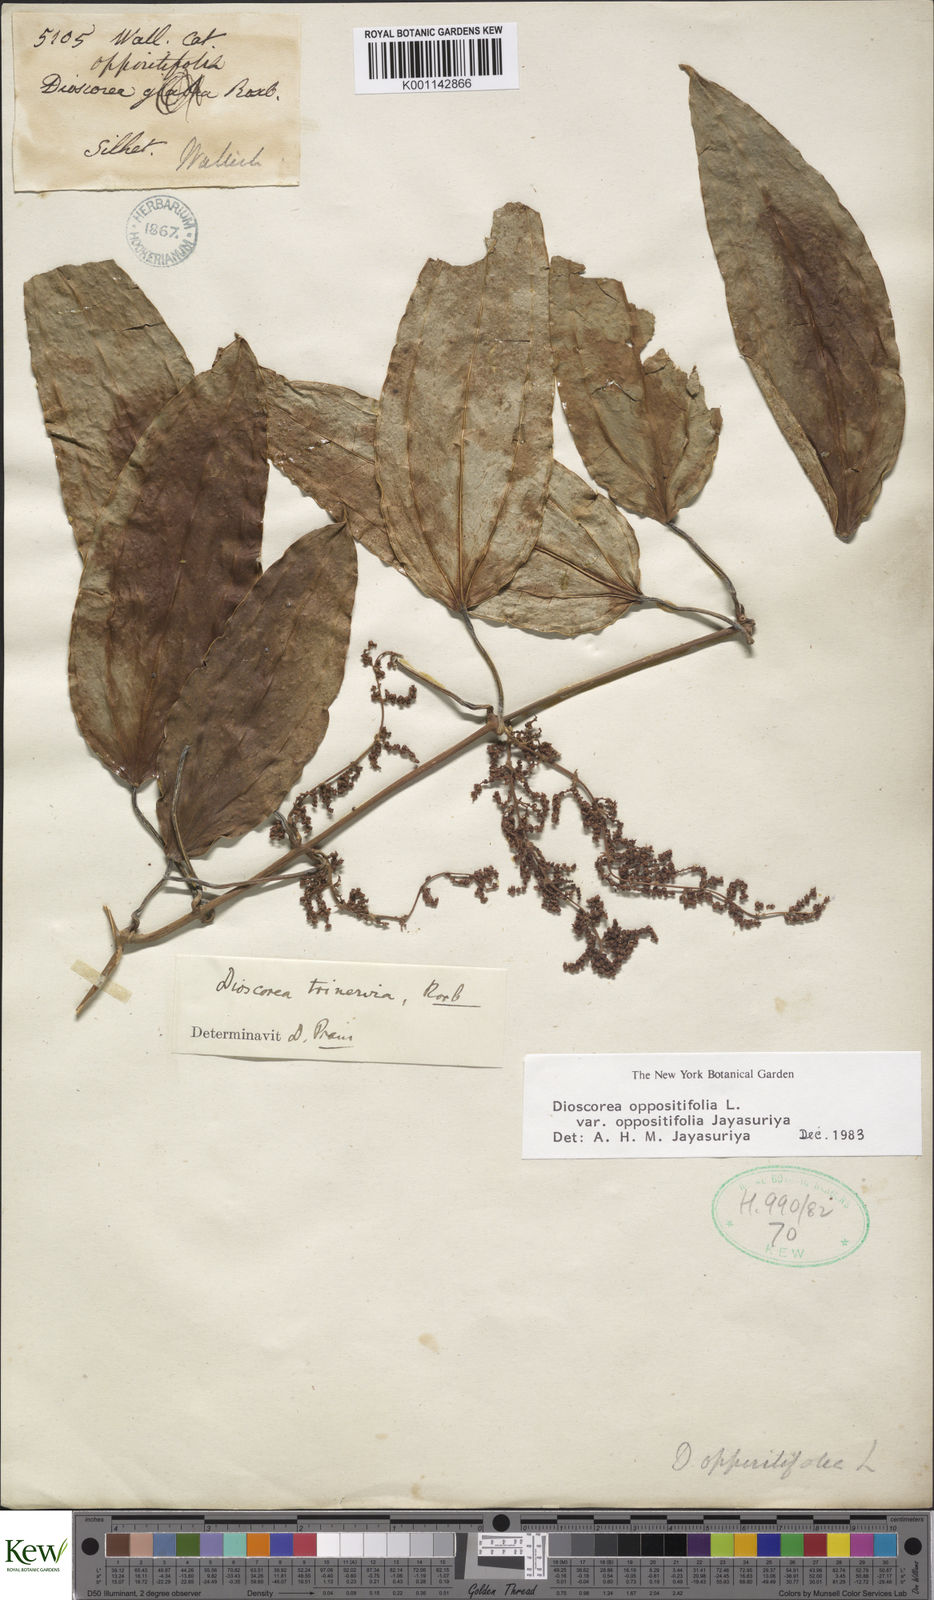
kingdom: Plantae
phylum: Tracheophyta
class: Liliopsida
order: Dioscoreales
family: Dioscoreaceae
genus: Dioscorea
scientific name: Dioscorea oppositifolia
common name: Chinese yam
